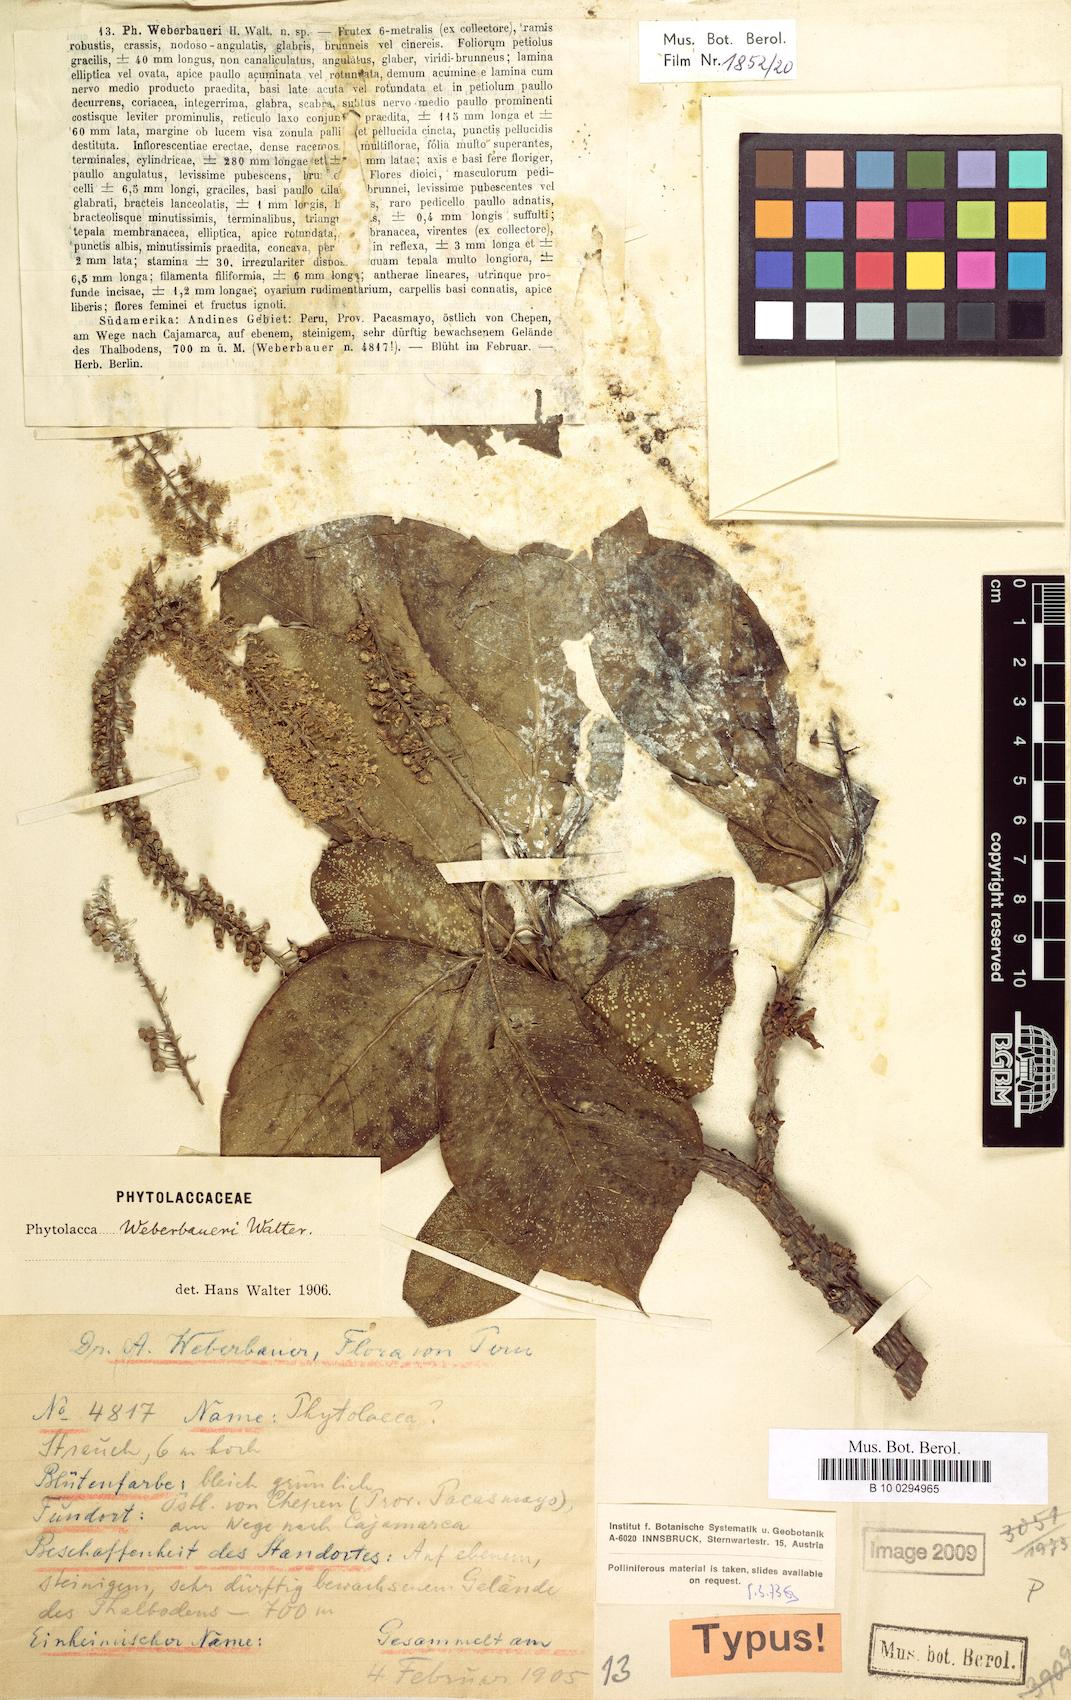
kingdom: Plantae
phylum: Tracheophyta
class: Magnoliopsida
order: Caryophyllales
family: Phytolaccaceae
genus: Phytolacca
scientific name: Phytolacca dioica
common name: Pokeweed
